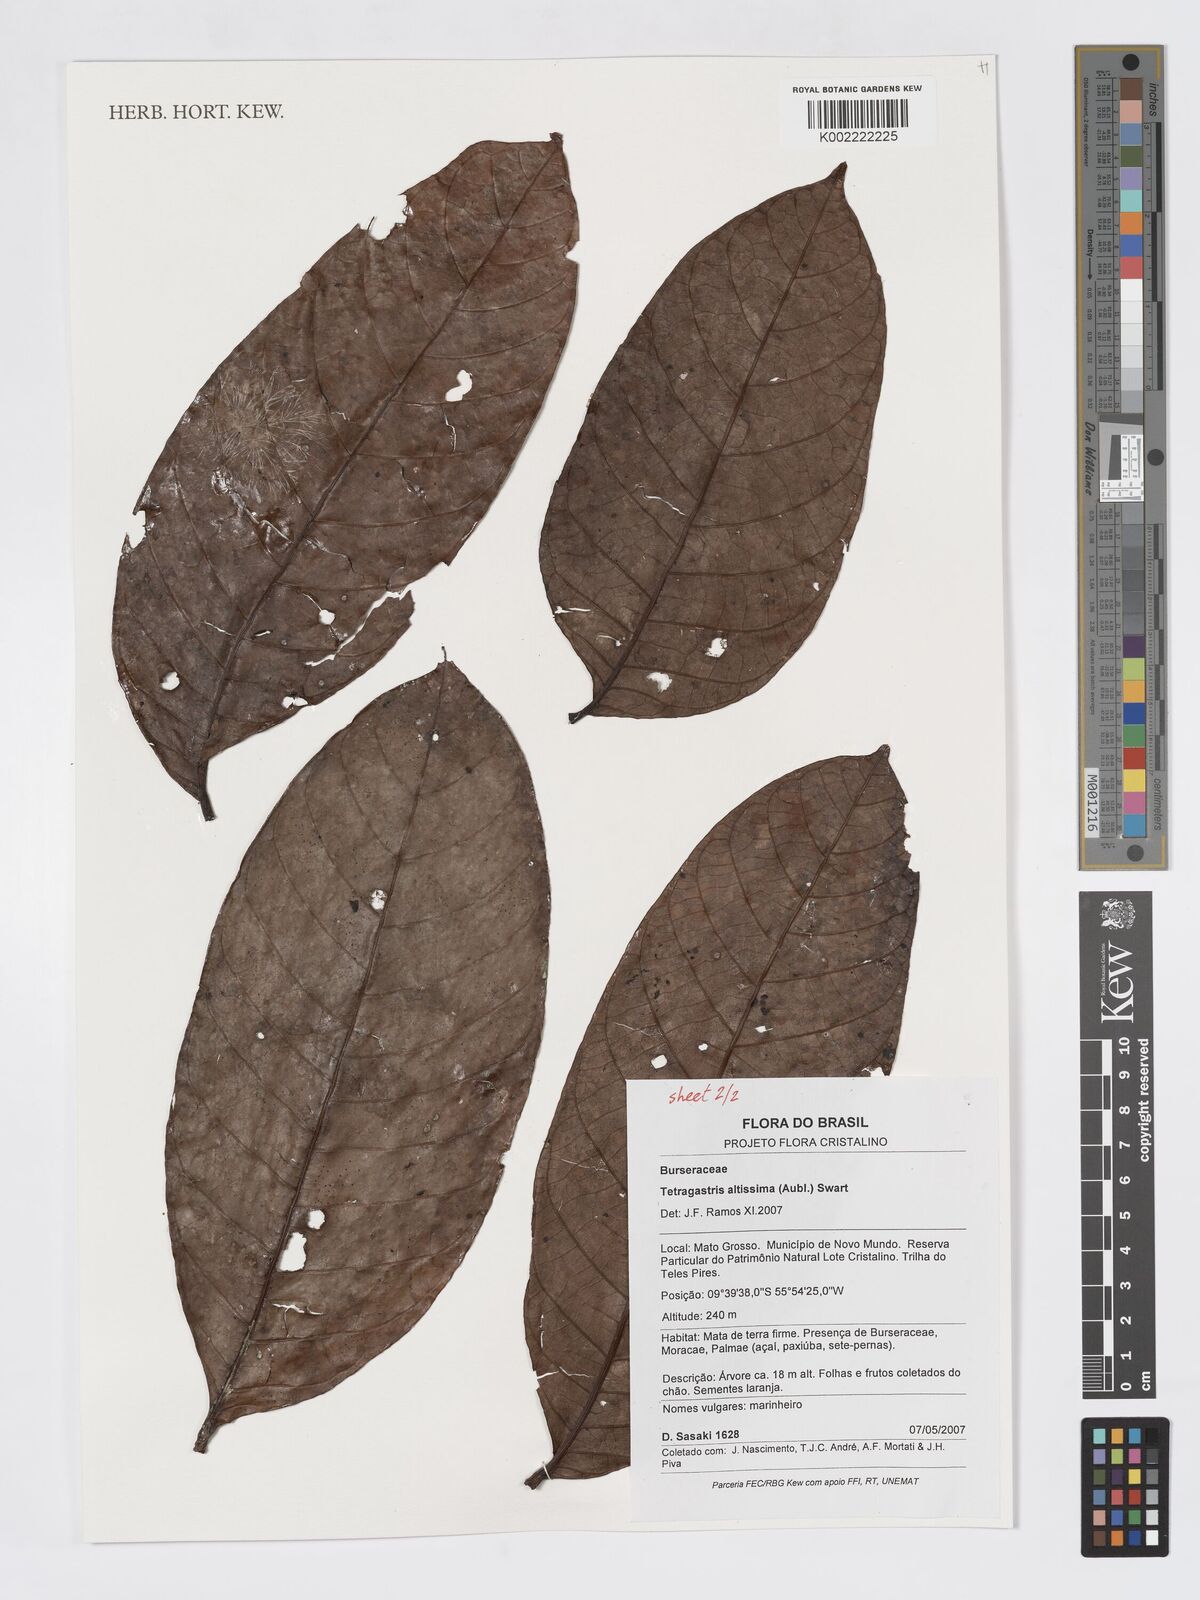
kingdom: Plantae
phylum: Tracheophyta
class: Magnoliopsida
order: Sapindales
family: Burseraceae
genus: Tetragastris
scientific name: Tetragastris altissima
